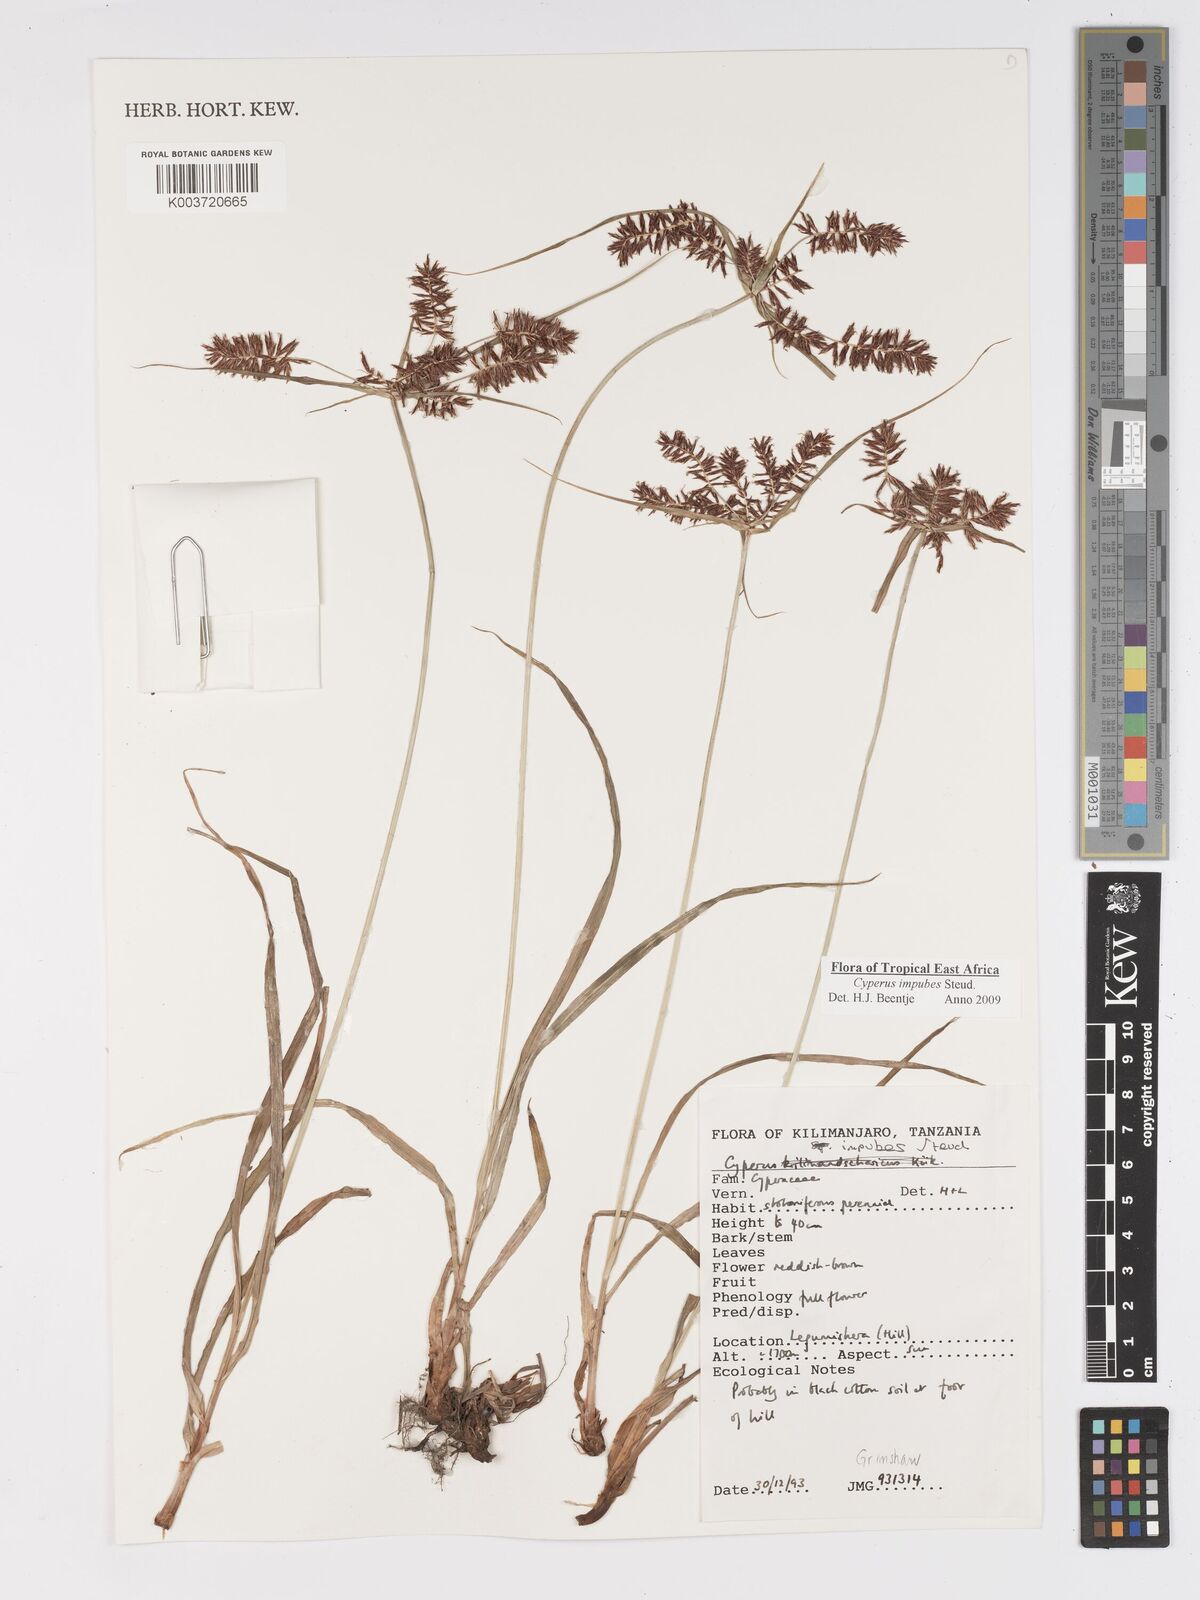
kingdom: Plantae
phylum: Tracheophyta
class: Liliopsida
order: Poales
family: Cyperaceae
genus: Cyperus
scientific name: Cyperus impubes
